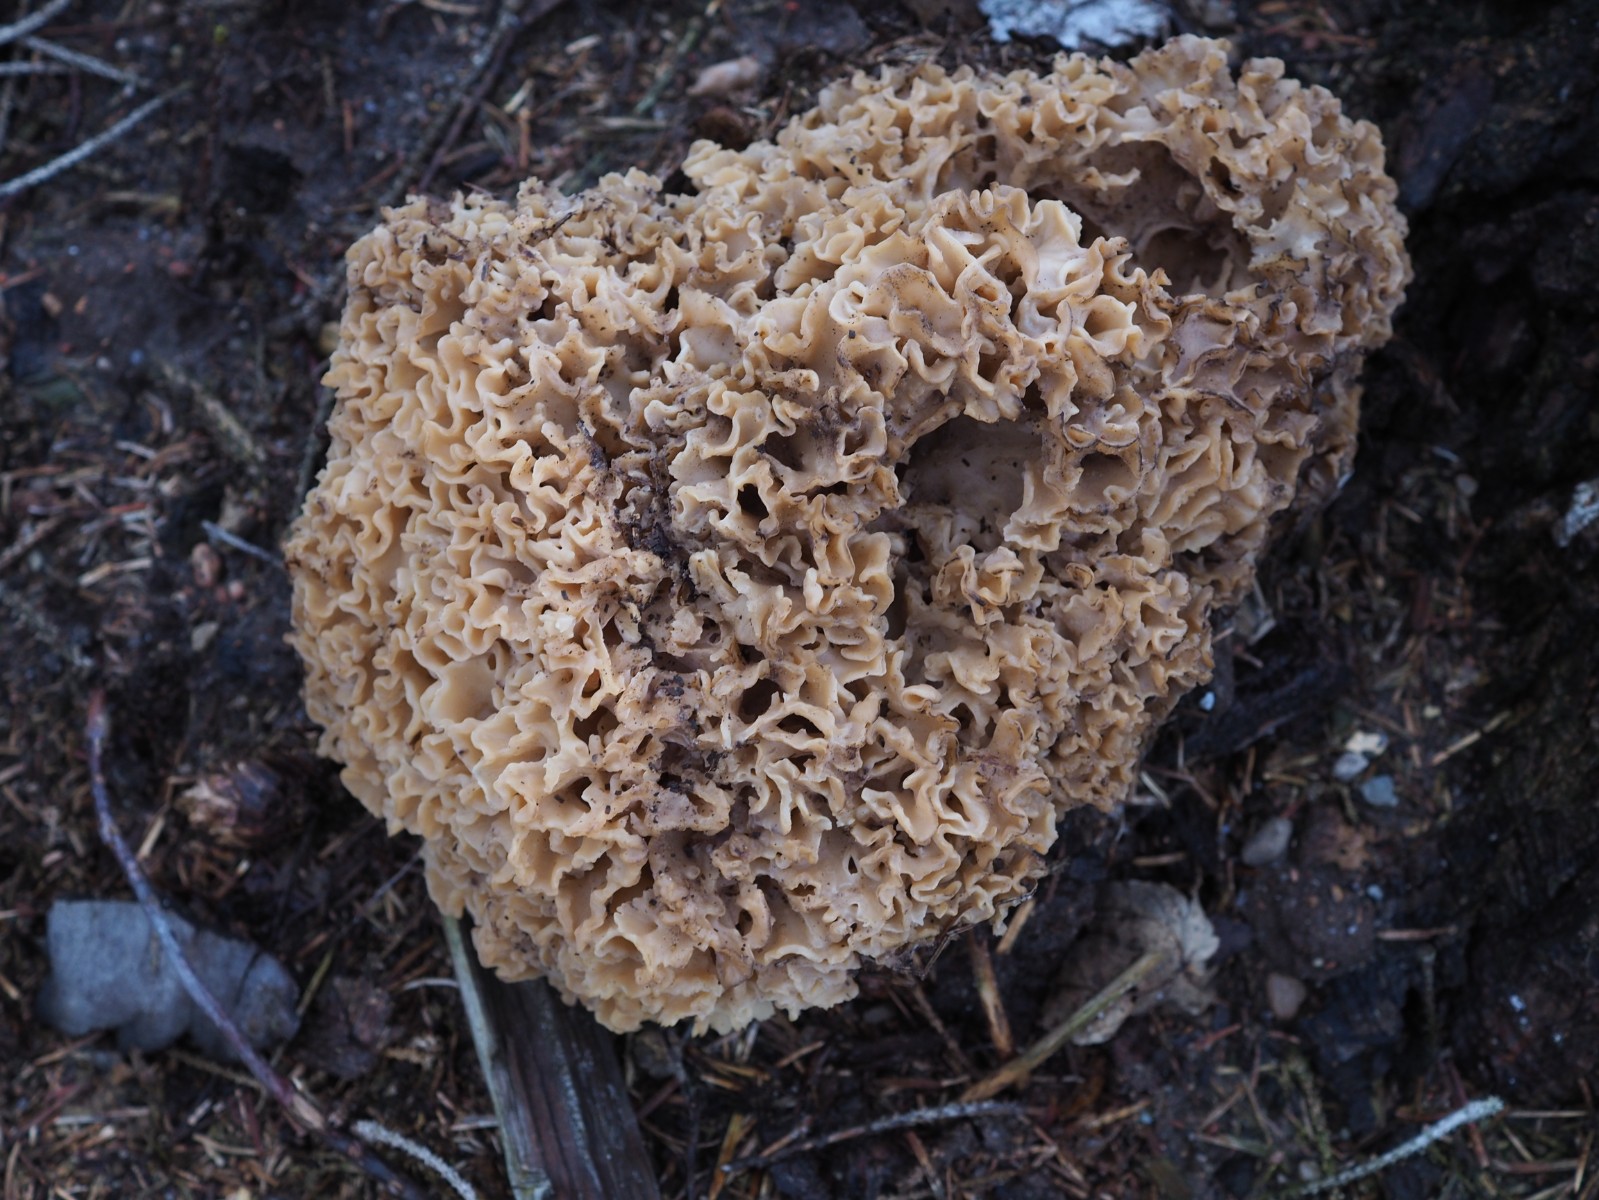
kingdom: Fungi
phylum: Basidiomycota
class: Agaricomycetes
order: Polyporales
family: Sparassidaceae
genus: Sparassis
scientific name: Sparassis crispa
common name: kruset blomkålssvamp
